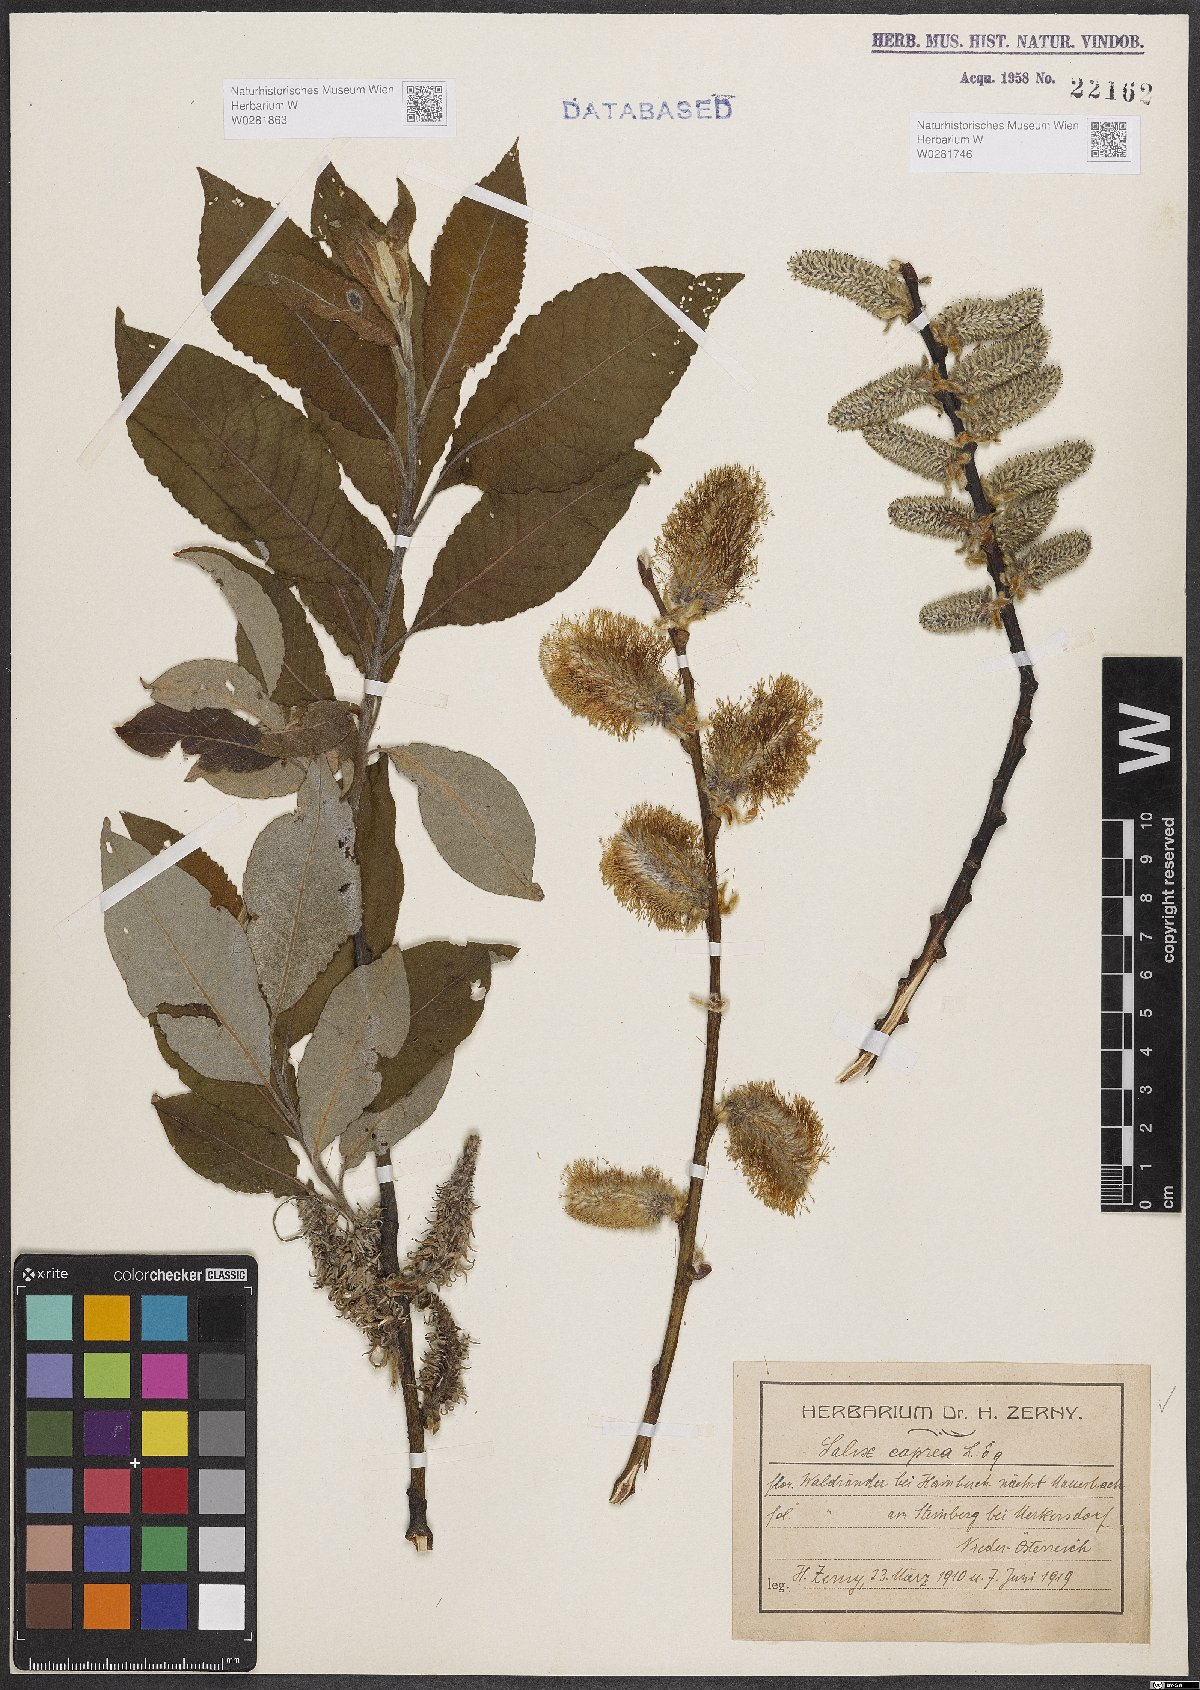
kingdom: Plantae
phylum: Tracheophyta
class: Magnoliopsida
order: Malpighiales
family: Salicaceae
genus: Salix
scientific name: Salix caprea
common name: Goat willow
